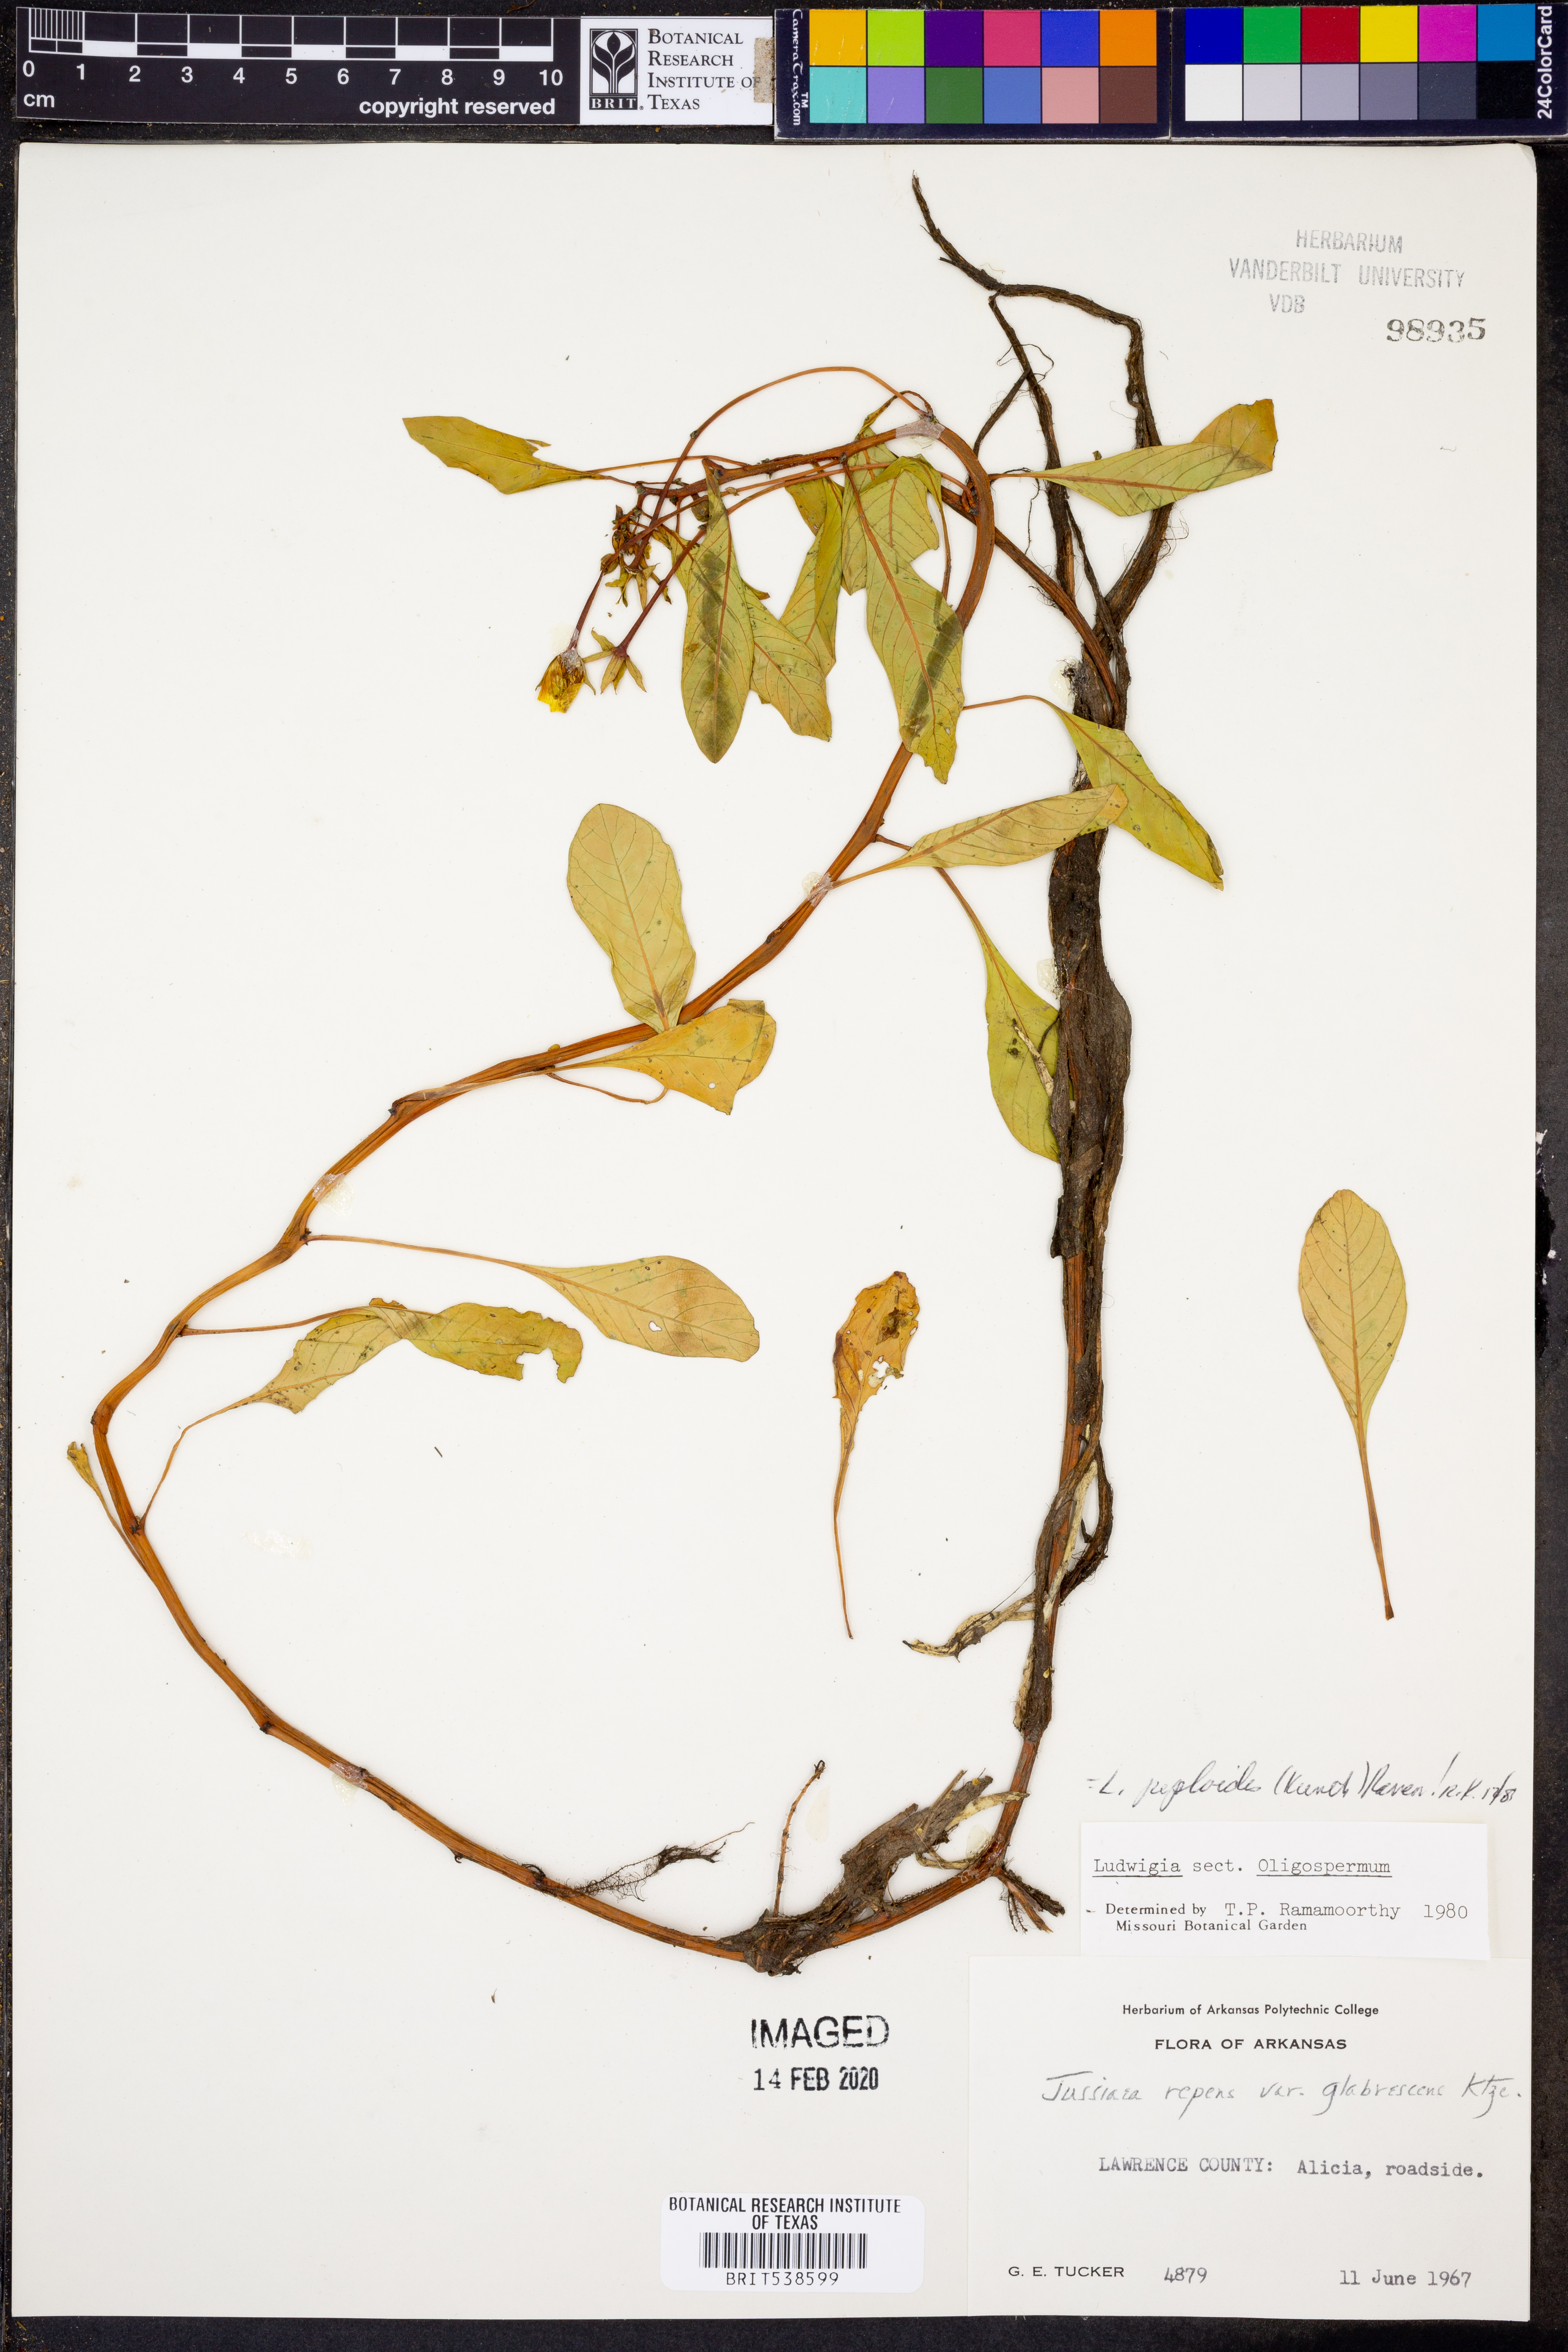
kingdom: Plantae
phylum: Tracheophyta
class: Magnoliopsida
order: Myrtales
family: Onagraceae
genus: Ludwigia
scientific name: Ludwigia peploides
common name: Floating primrose-willow
